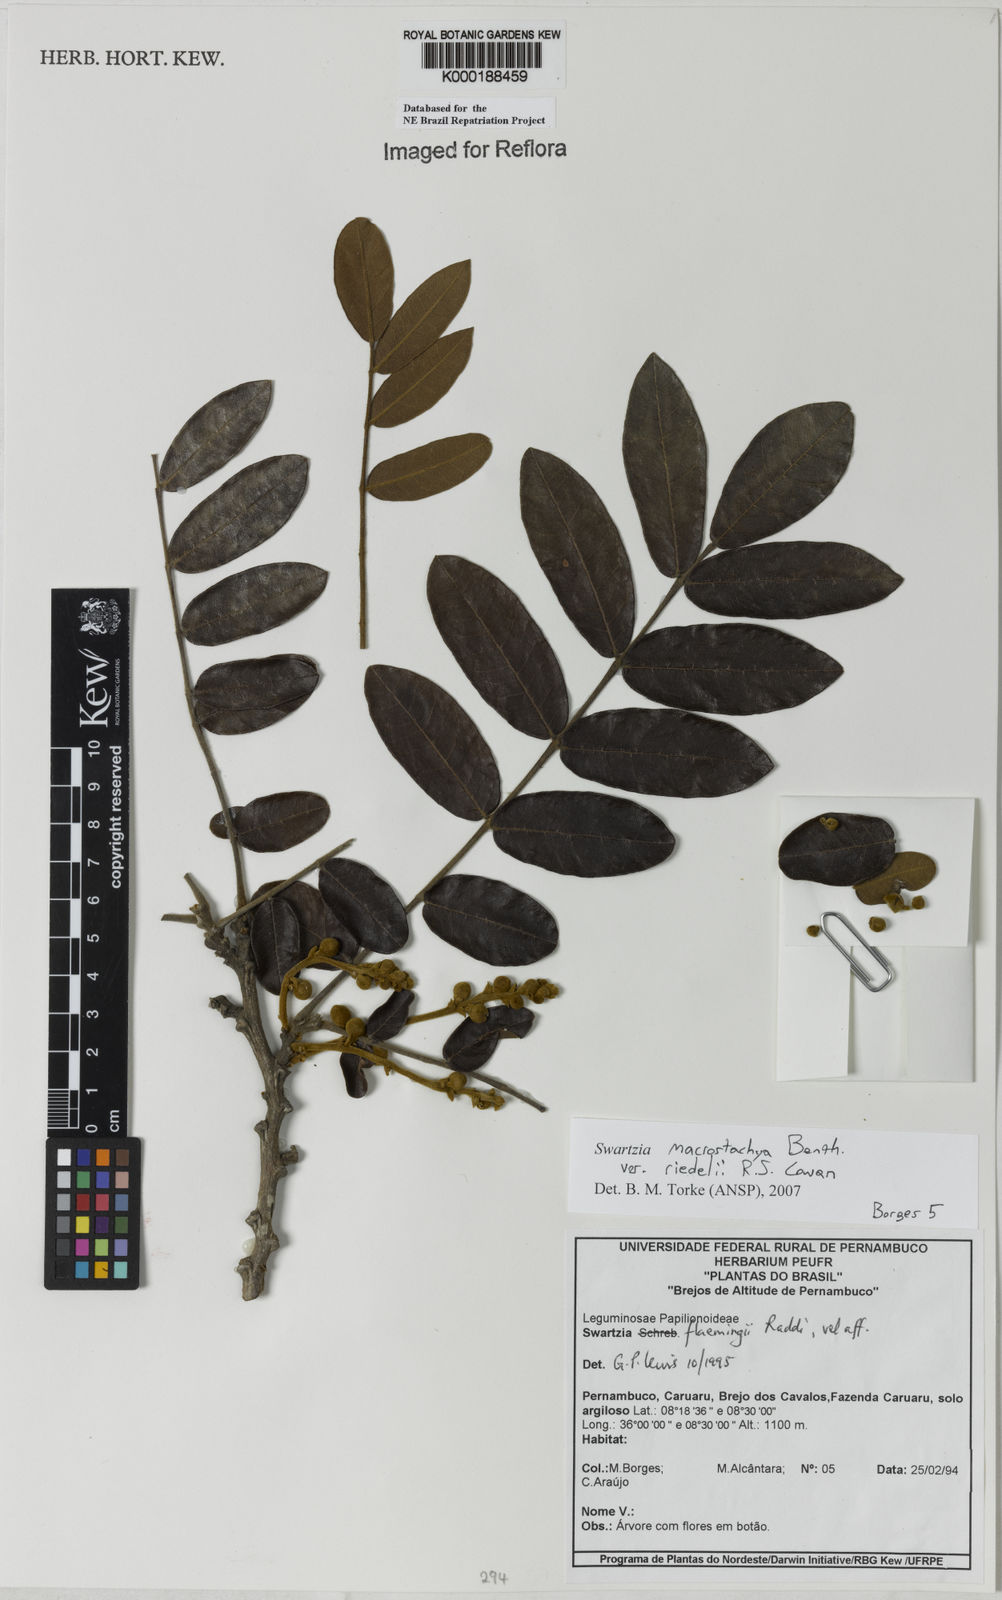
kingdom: Plantae
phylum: Tracheophyta
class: Magnoliopsida
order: Fabales
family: Fabaceae
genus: Swartzia
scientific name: Swartzia flaemingii
